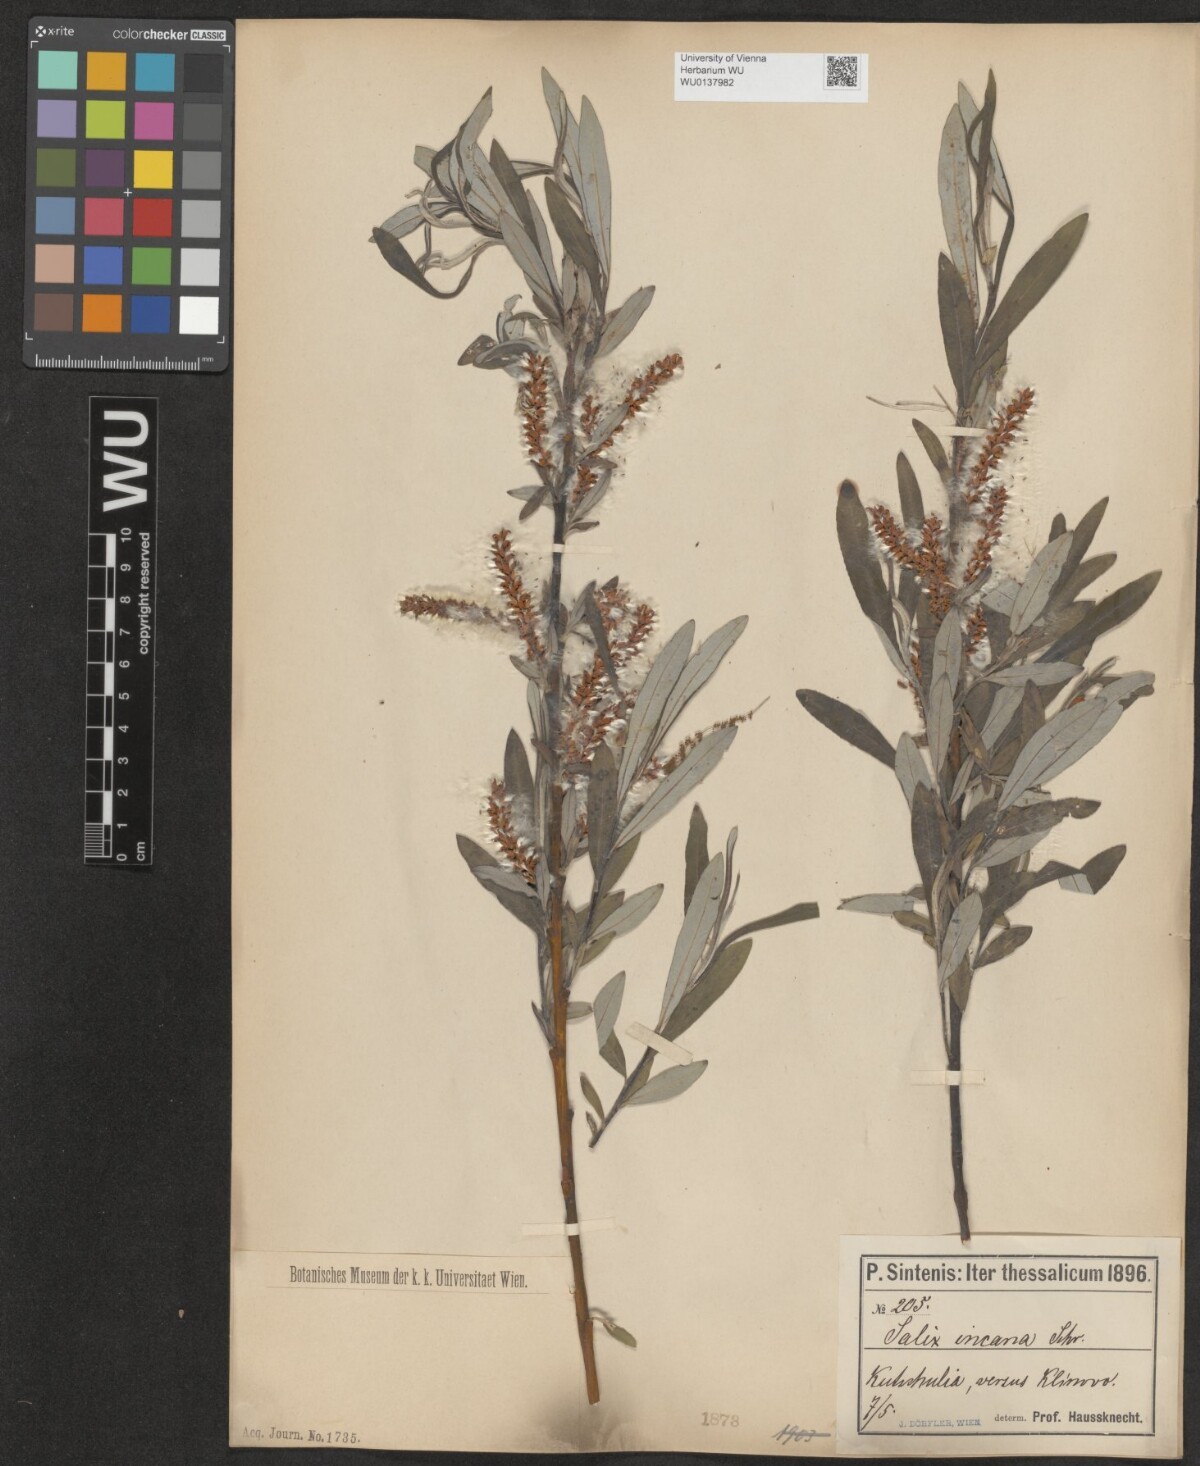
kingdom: Plantae
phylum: Tracheophyta
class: Magnoliopsida
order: Malpighiales
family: Salicaceae
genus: Salix
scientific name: Salix eleagnos
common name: Elaeagnus willow
